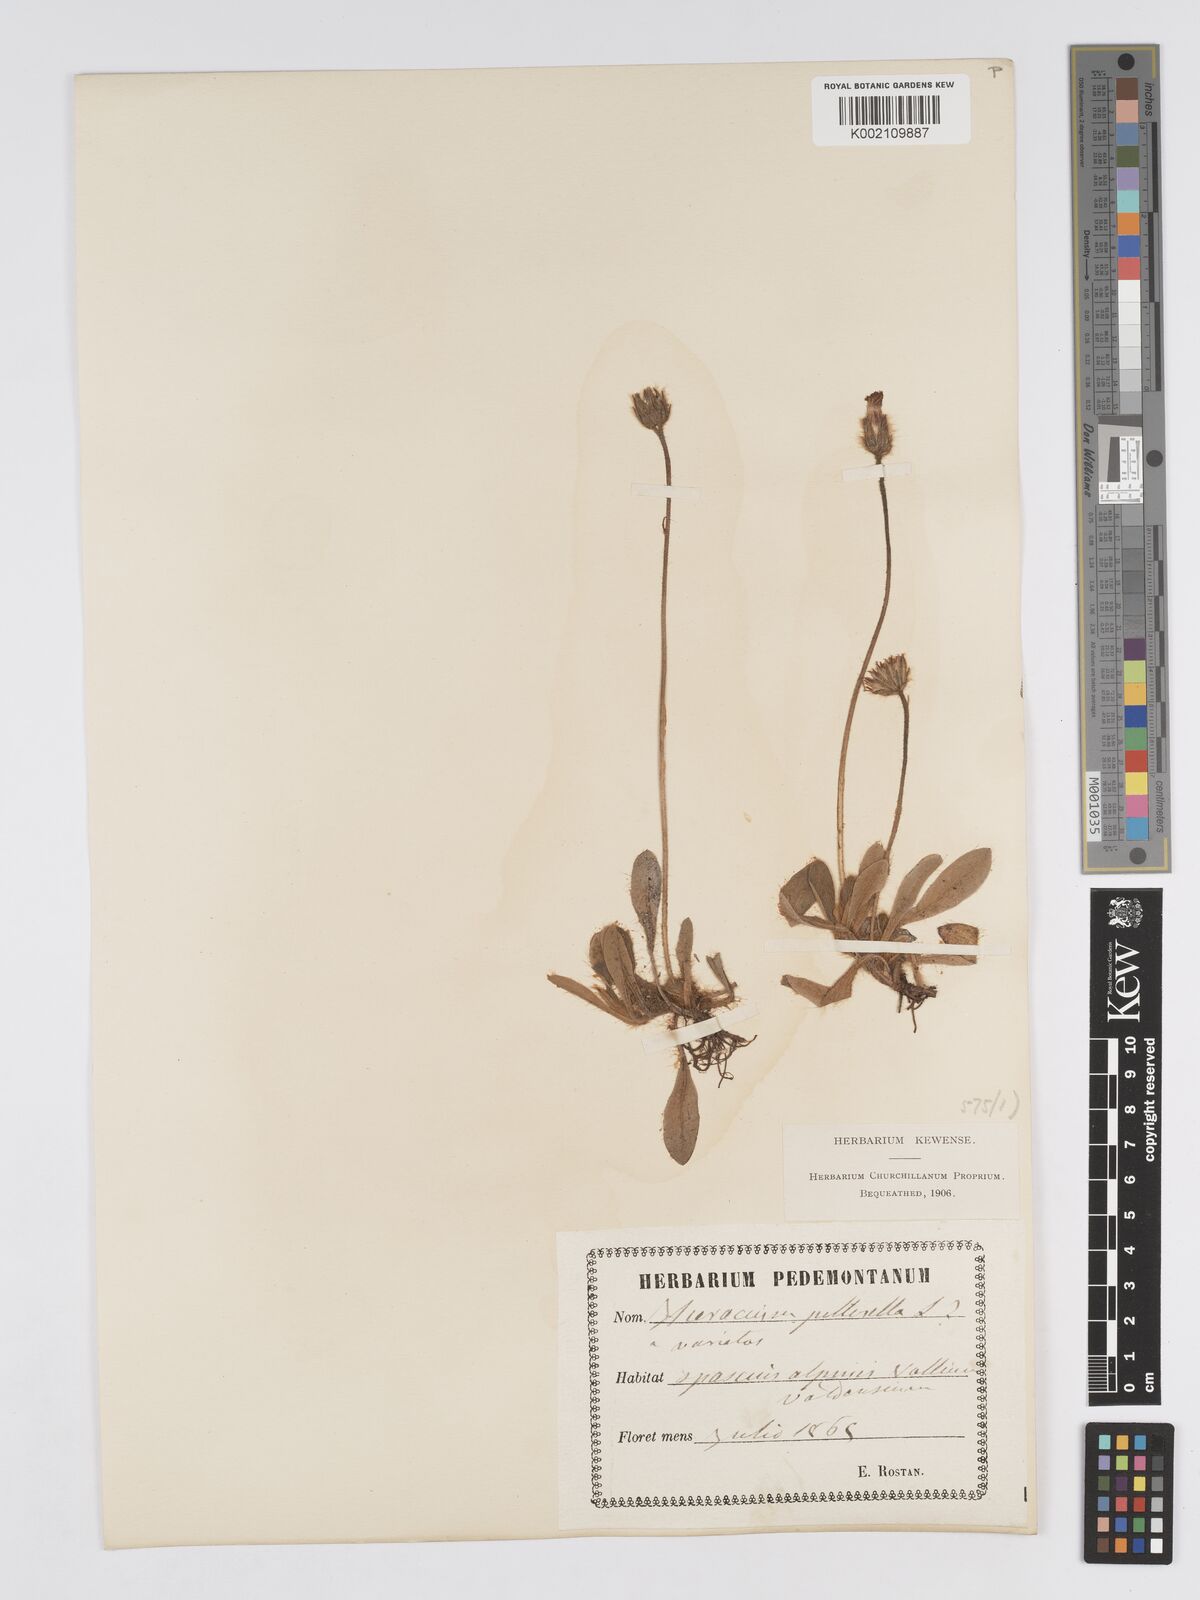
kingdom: Plantae
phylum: Tracheophyta
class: Magnoliopsida
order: Asterales
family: Asteraceae
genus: Pilosella
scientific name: Pilosella hoppeana
